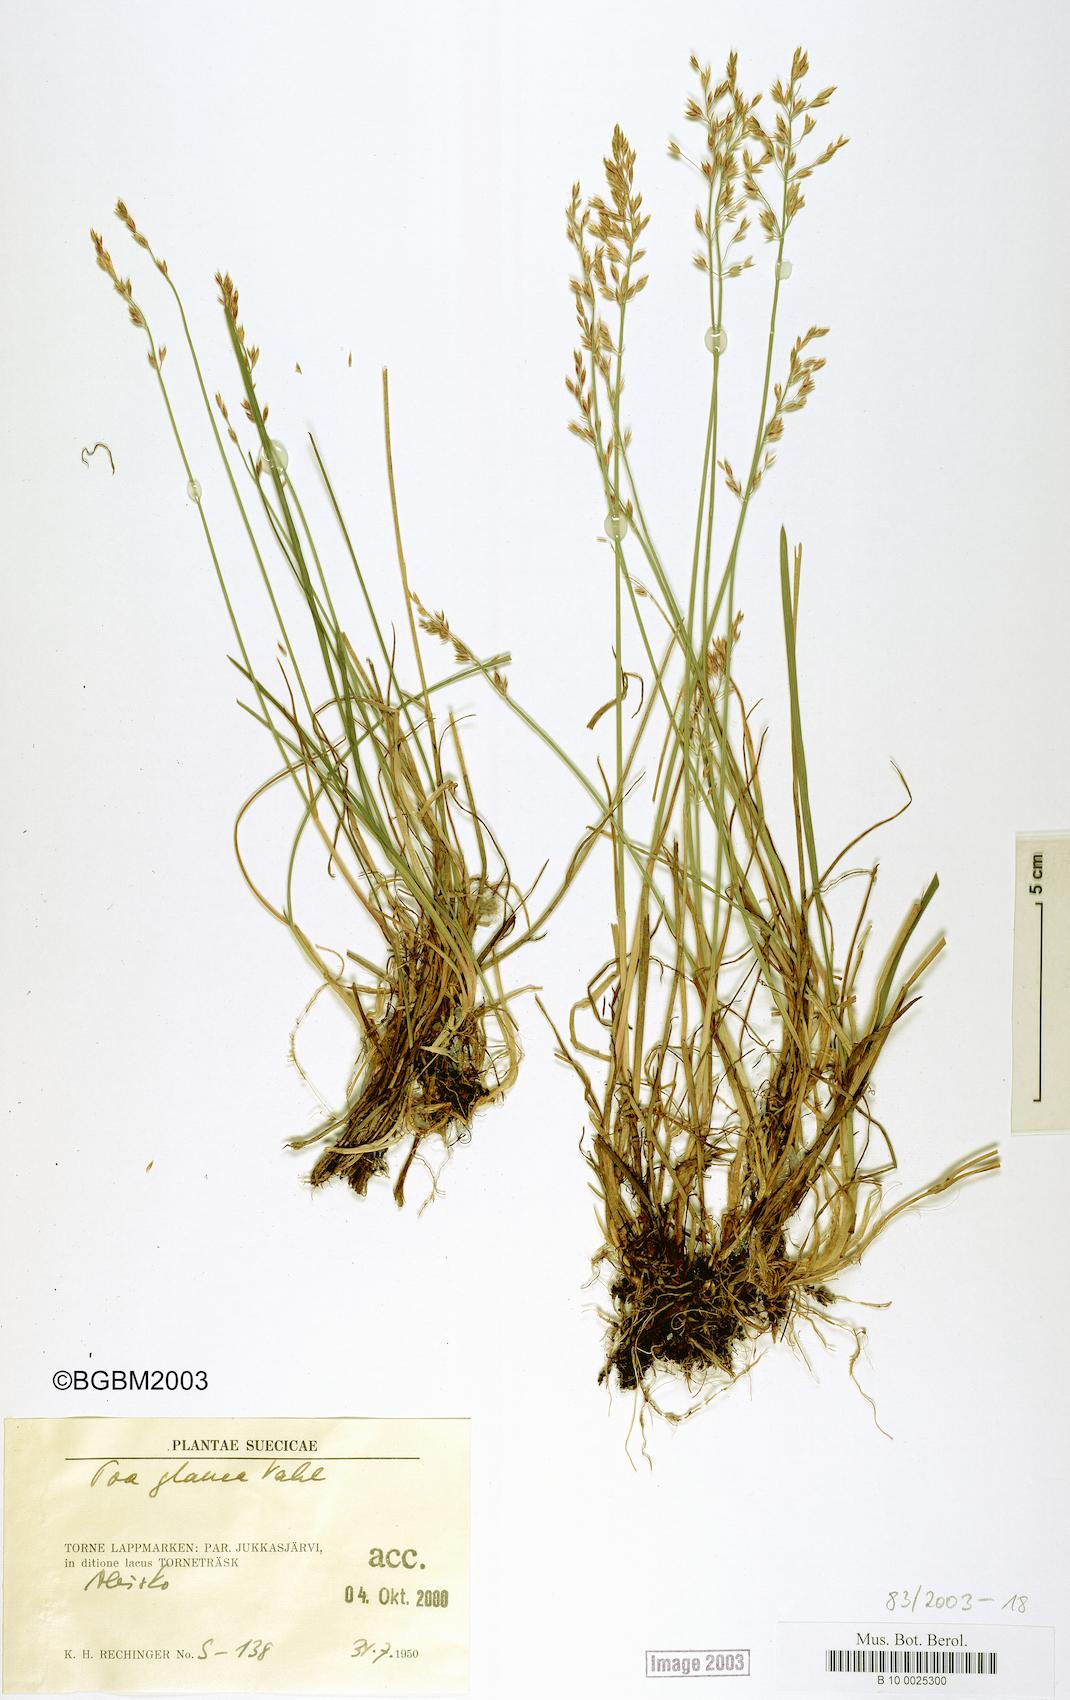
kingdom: Plantae
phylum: Tracheophyta
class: Liliopsida
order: Poales
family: Poaceae
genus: Poa
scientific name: Poa glauca
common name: Glaucous bluegrass
